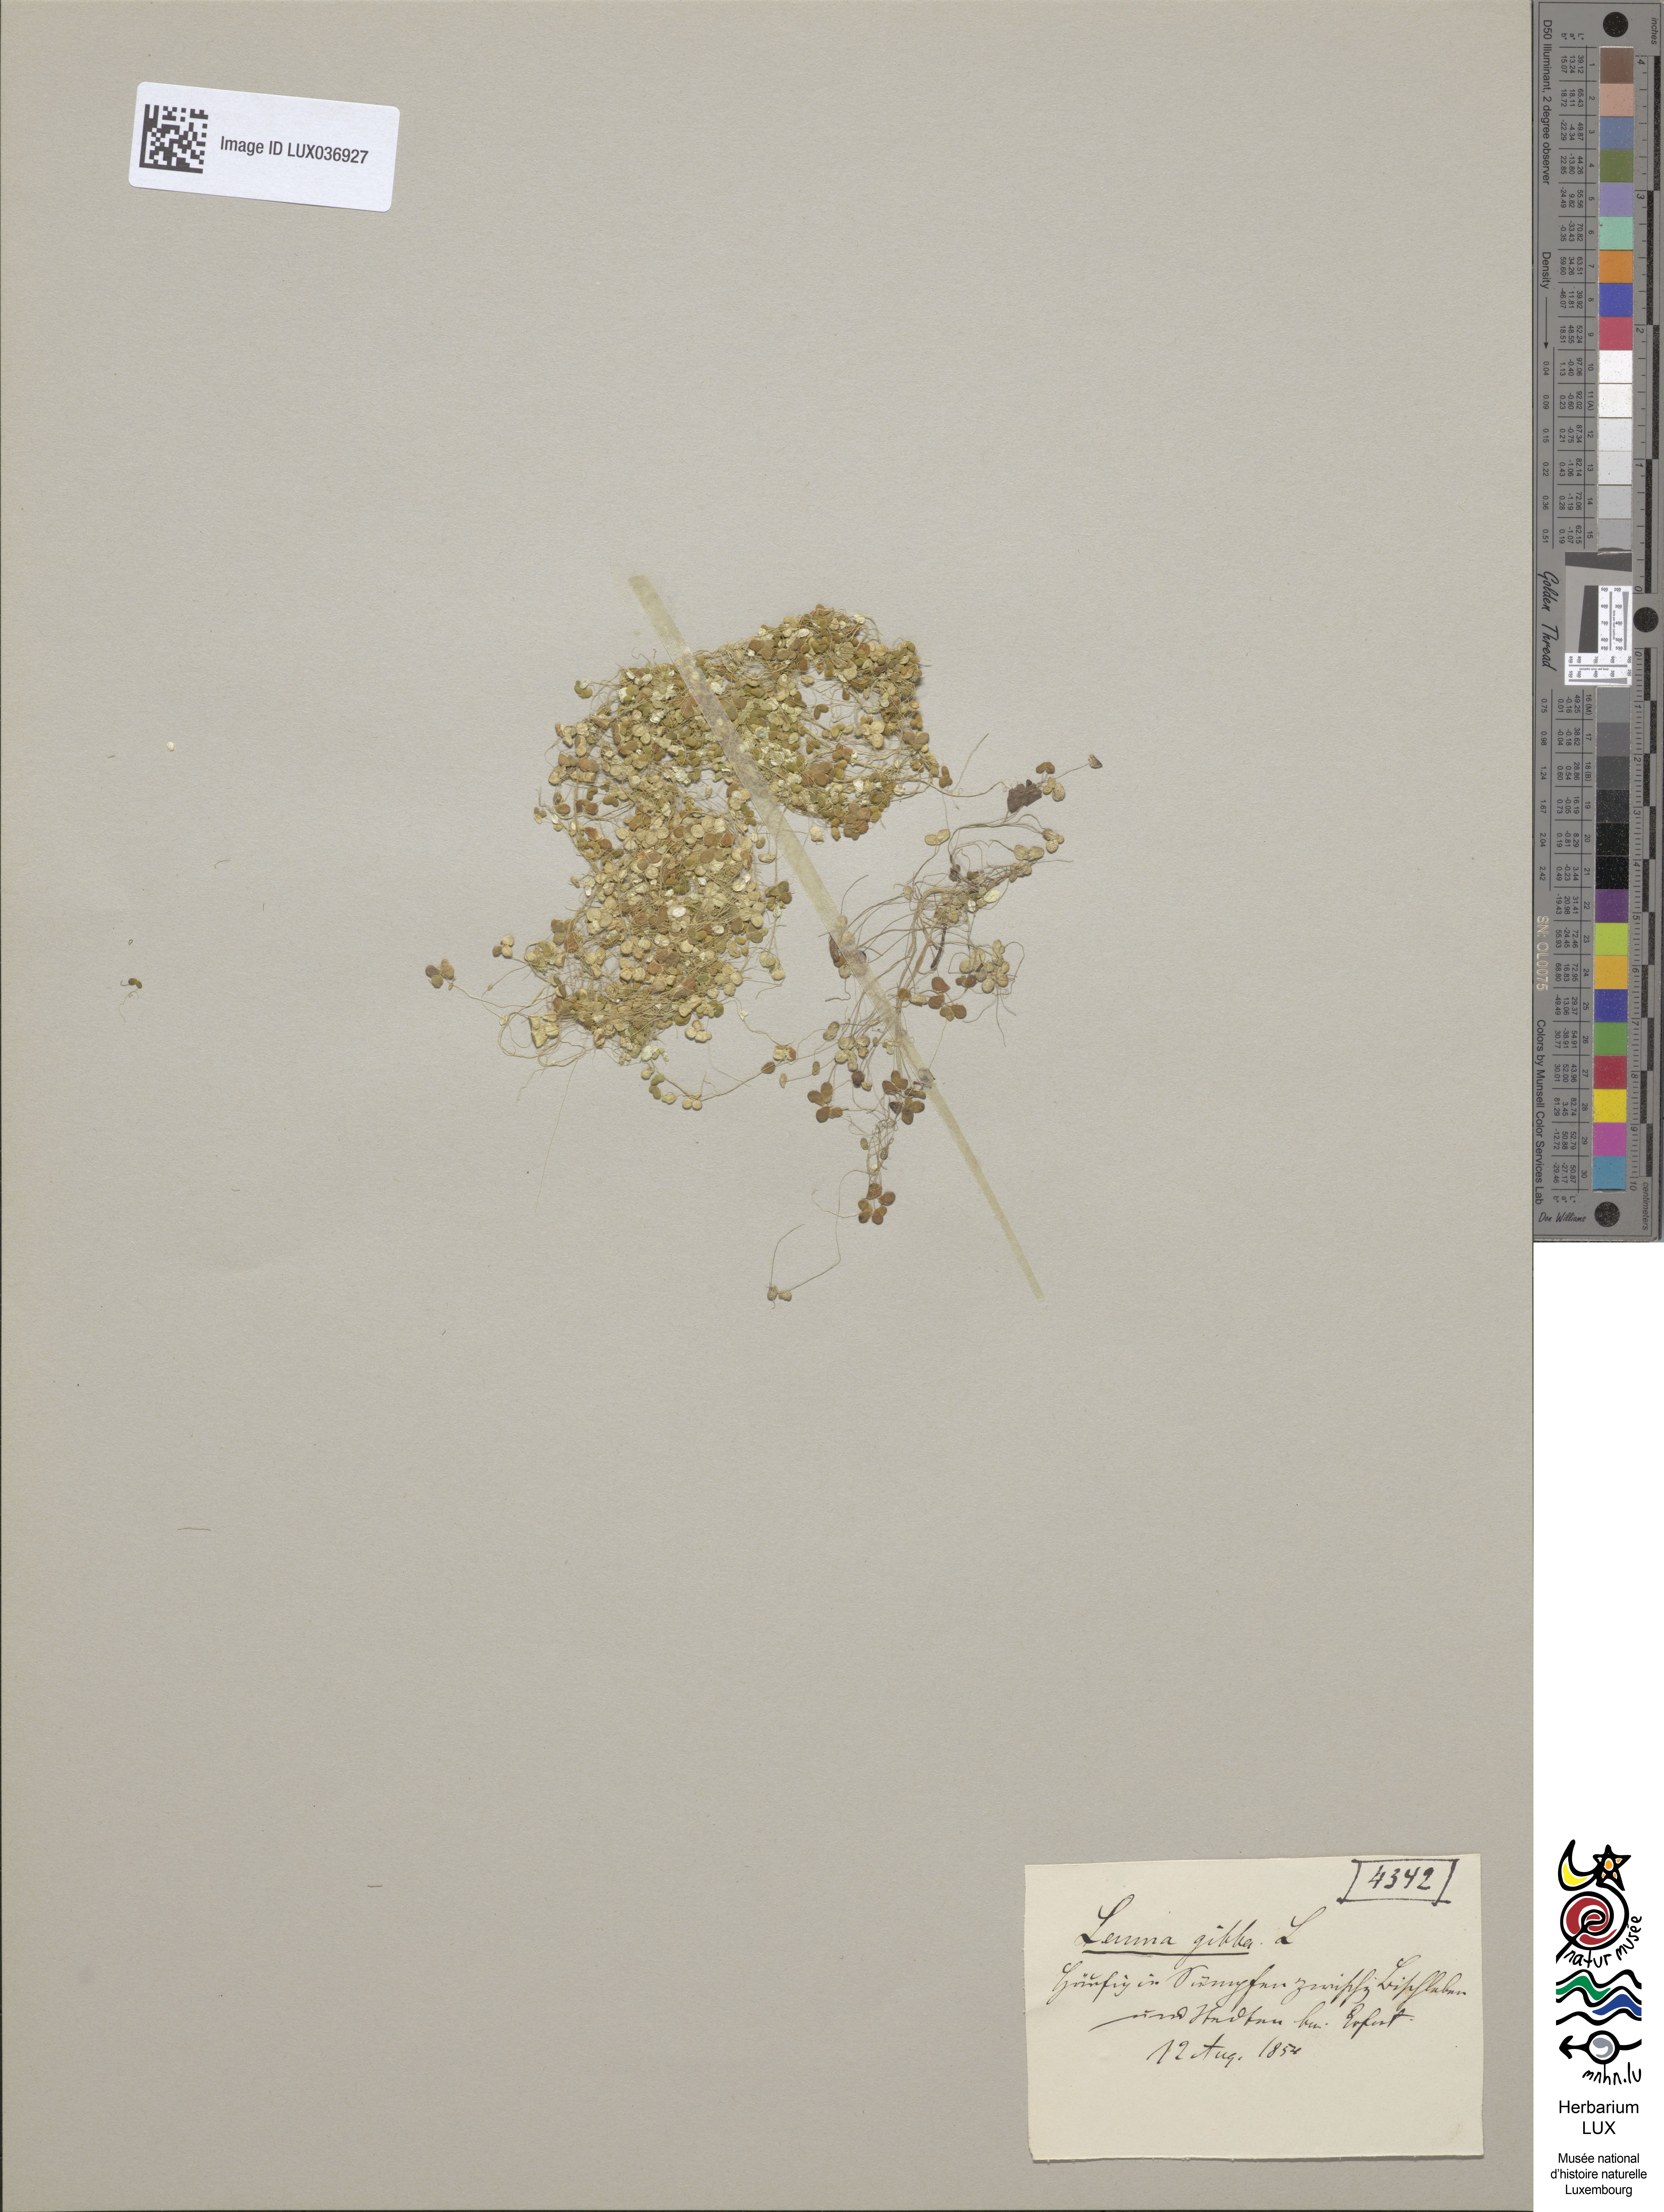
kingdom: Plantae
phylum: Tracheophyta
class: Liliopsida
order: Alismatales
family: Araceae
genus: Lemna
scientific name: Lemna gibba
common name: Fat duckweed
